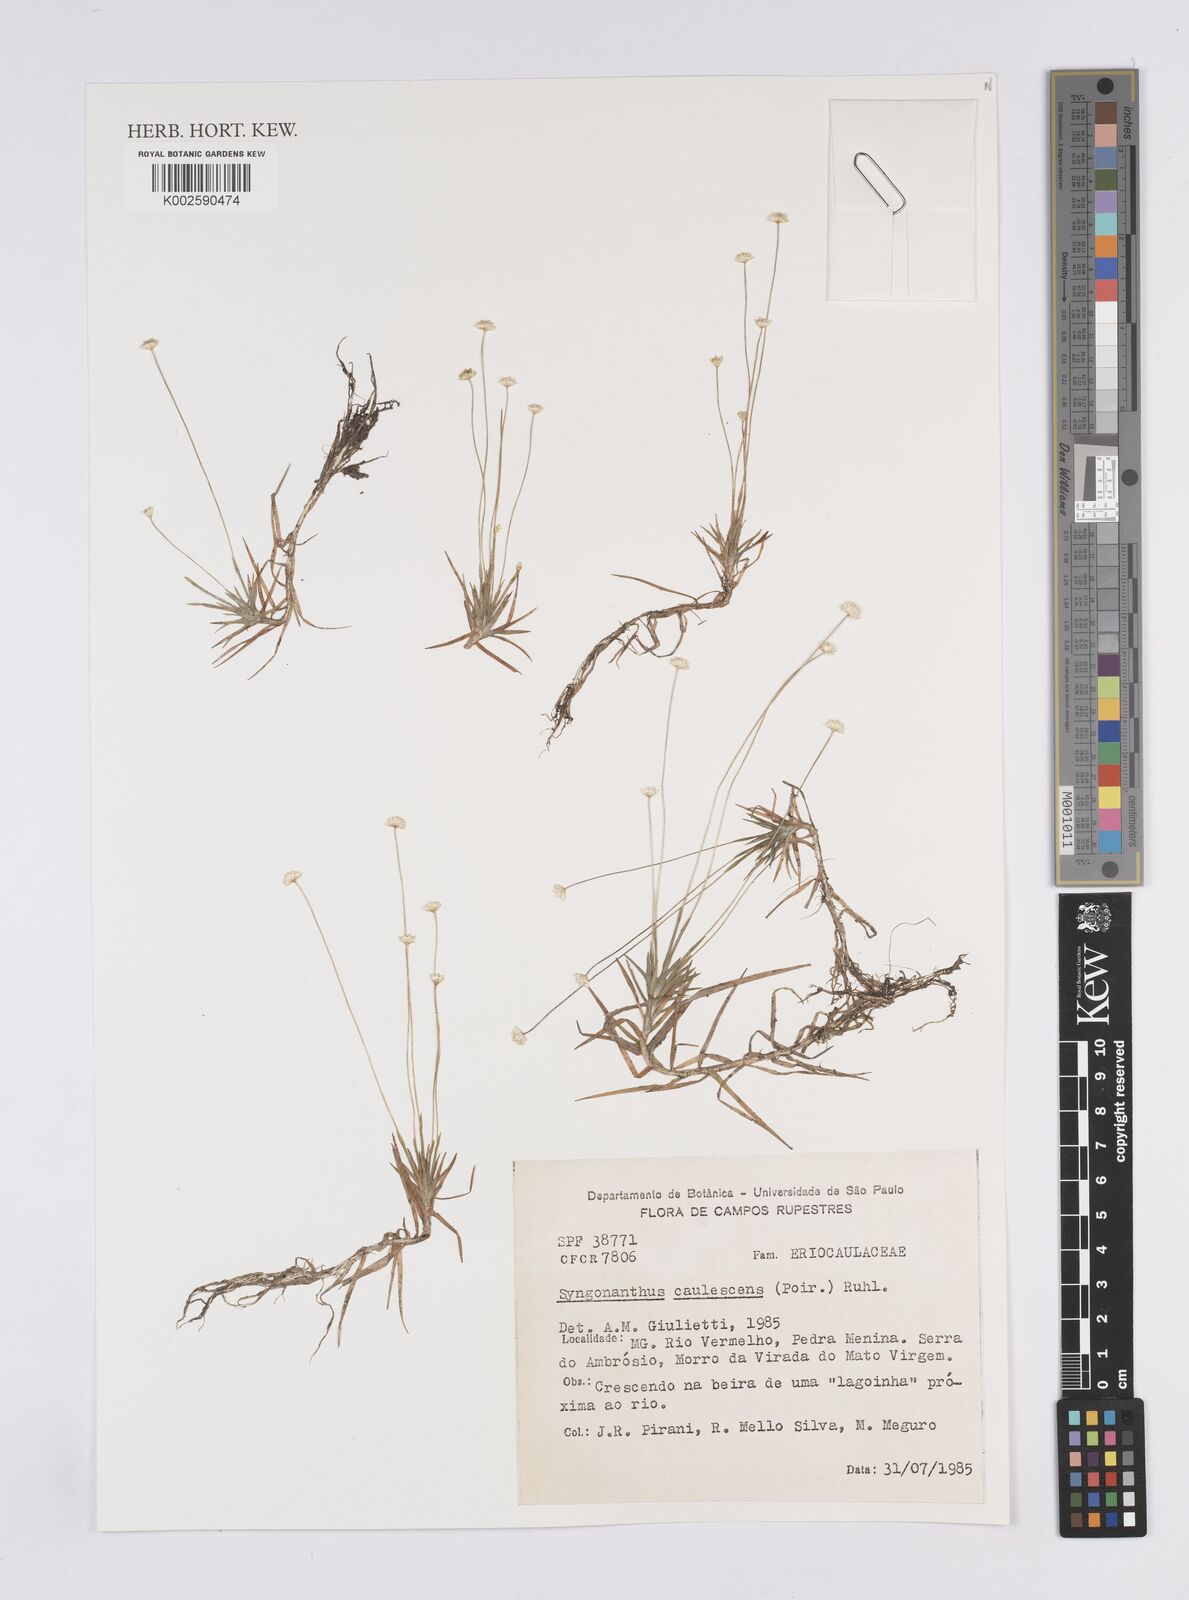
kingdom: Plantae
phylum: Tracheophyta
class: Liliopsida
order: Poales
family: Eriocaulaceae
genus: Syngonanthus
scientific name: Syngonanthus caulescens
